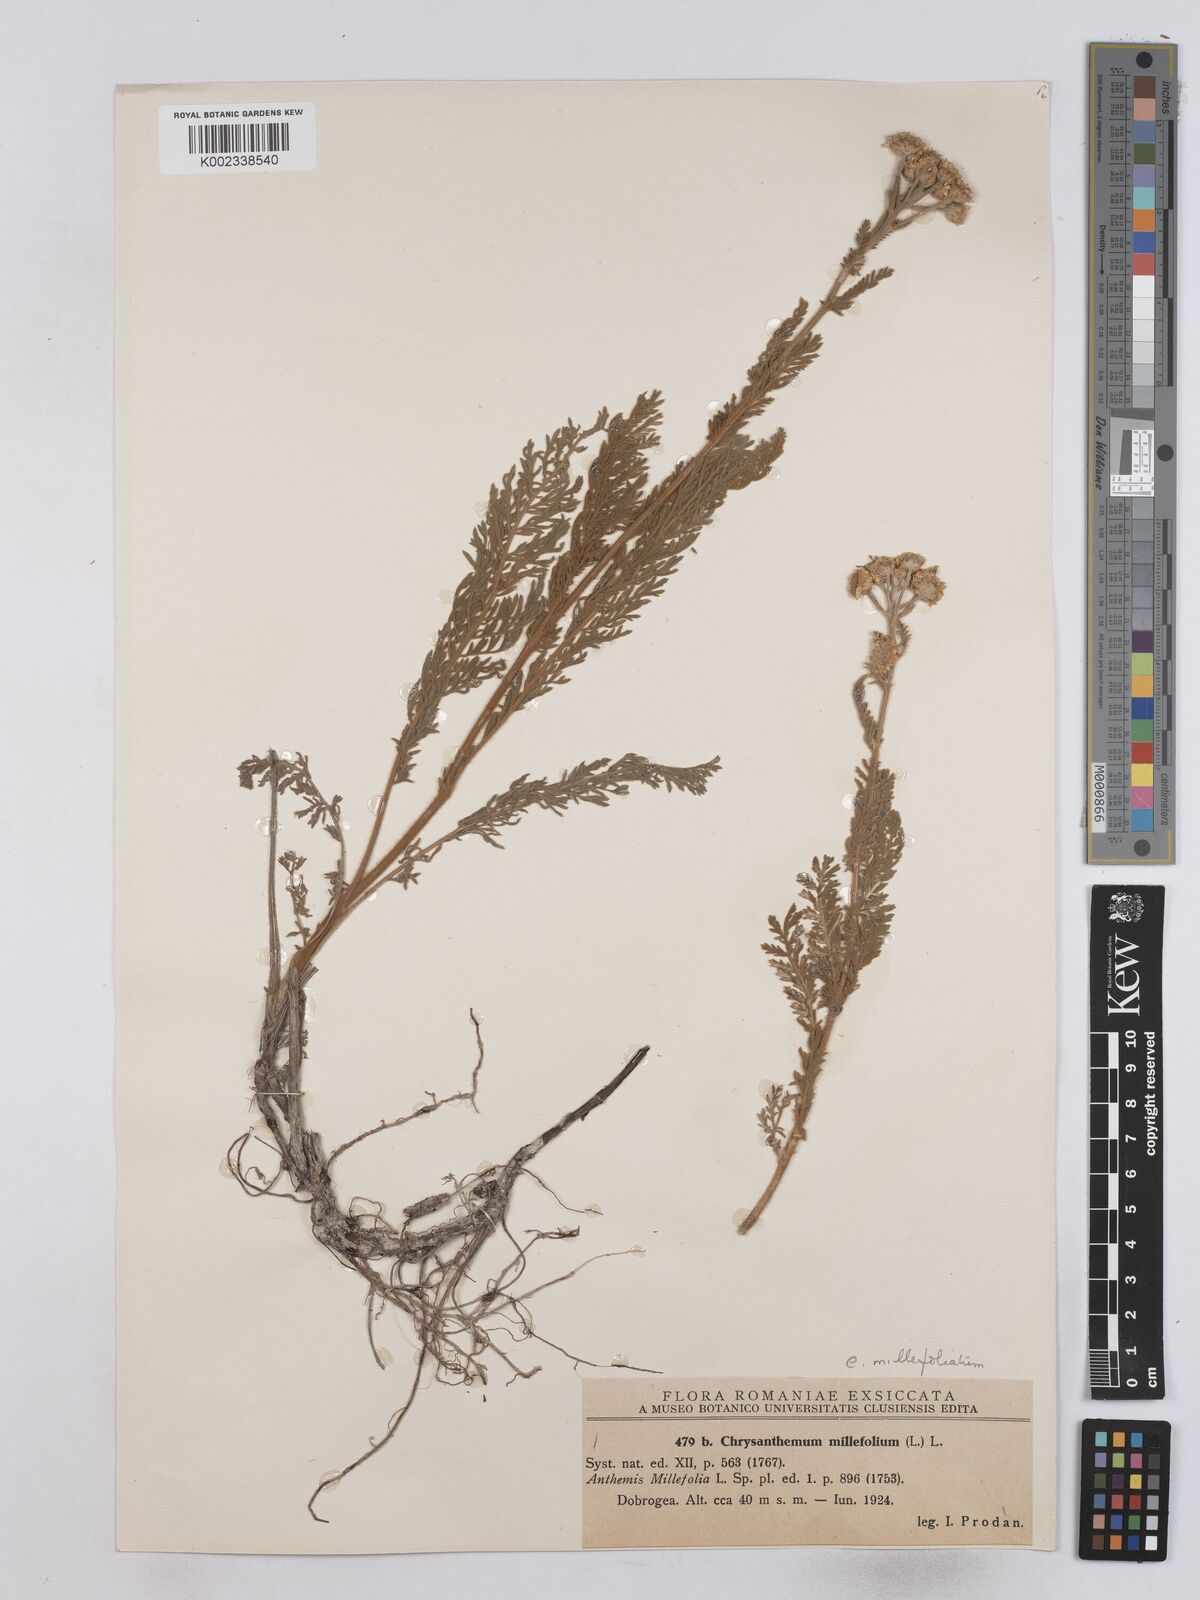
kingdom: Plantae
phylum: Tracheophyta
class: Magnoliopsida
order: Asterales
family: Asteraceae
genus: Tanacetum
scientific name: Tanacetum millefolium
